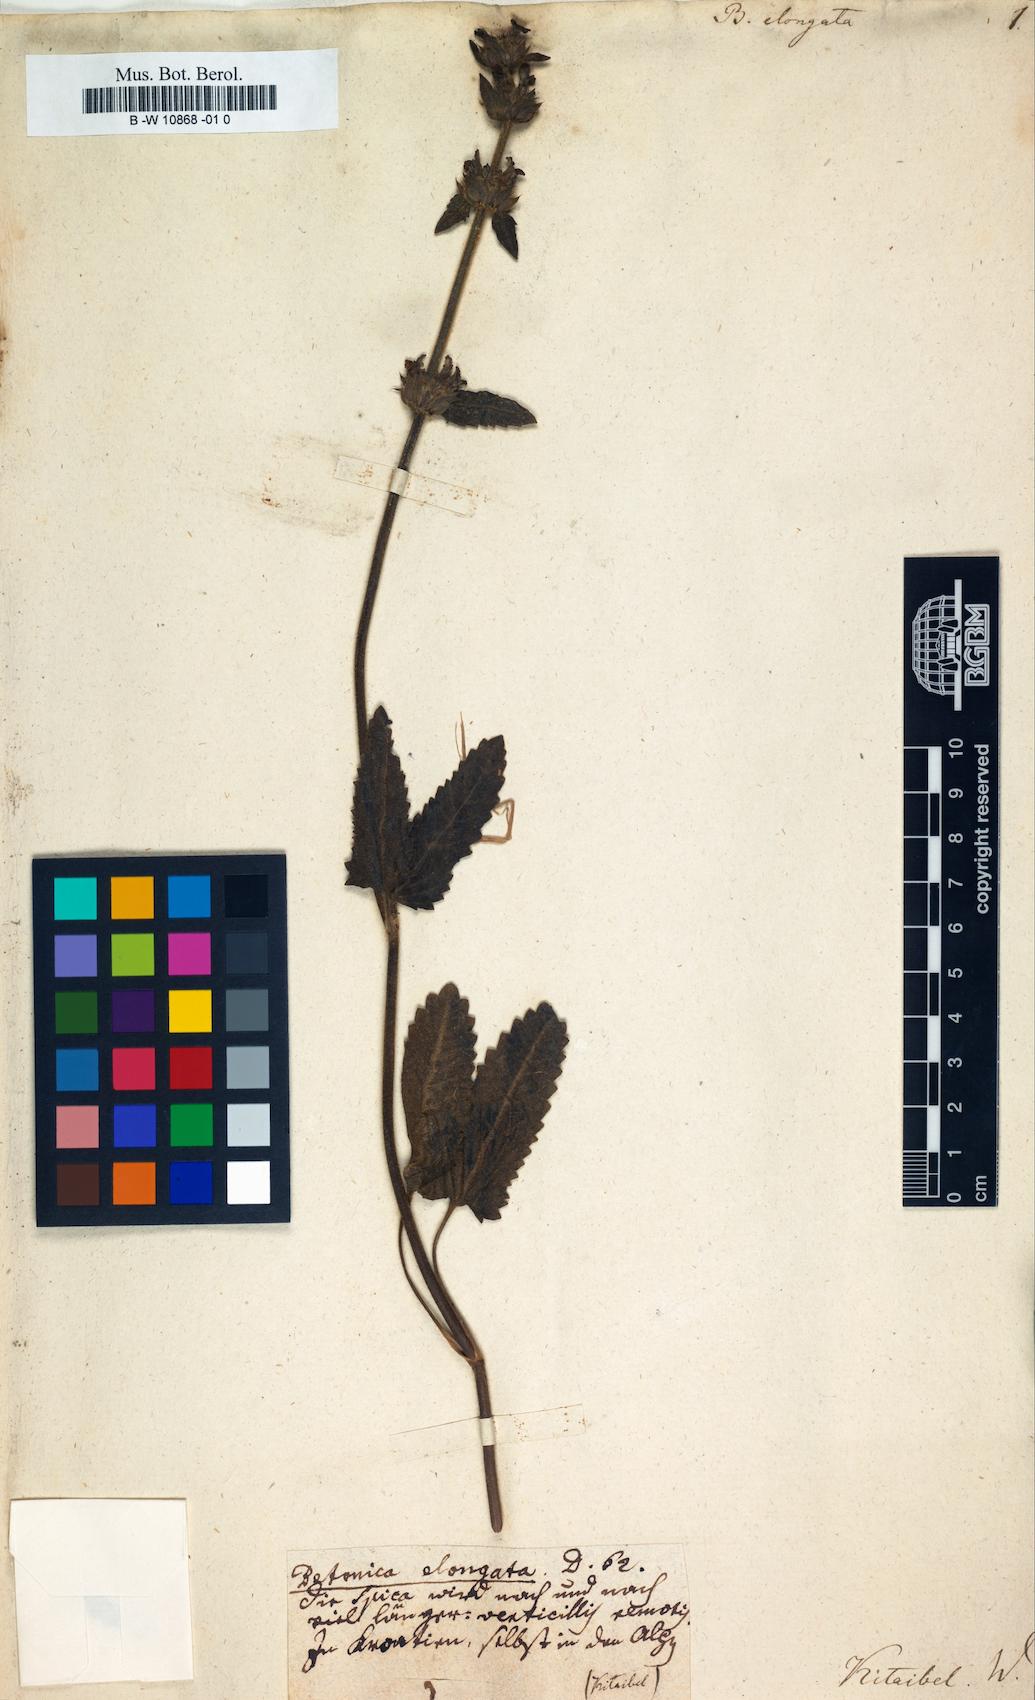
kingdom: Plantae
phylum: Tracheophyta
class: Magnoliopsida
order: Lamiales
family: Lamiaceae
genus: Betonica
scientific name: Betonica elongata
